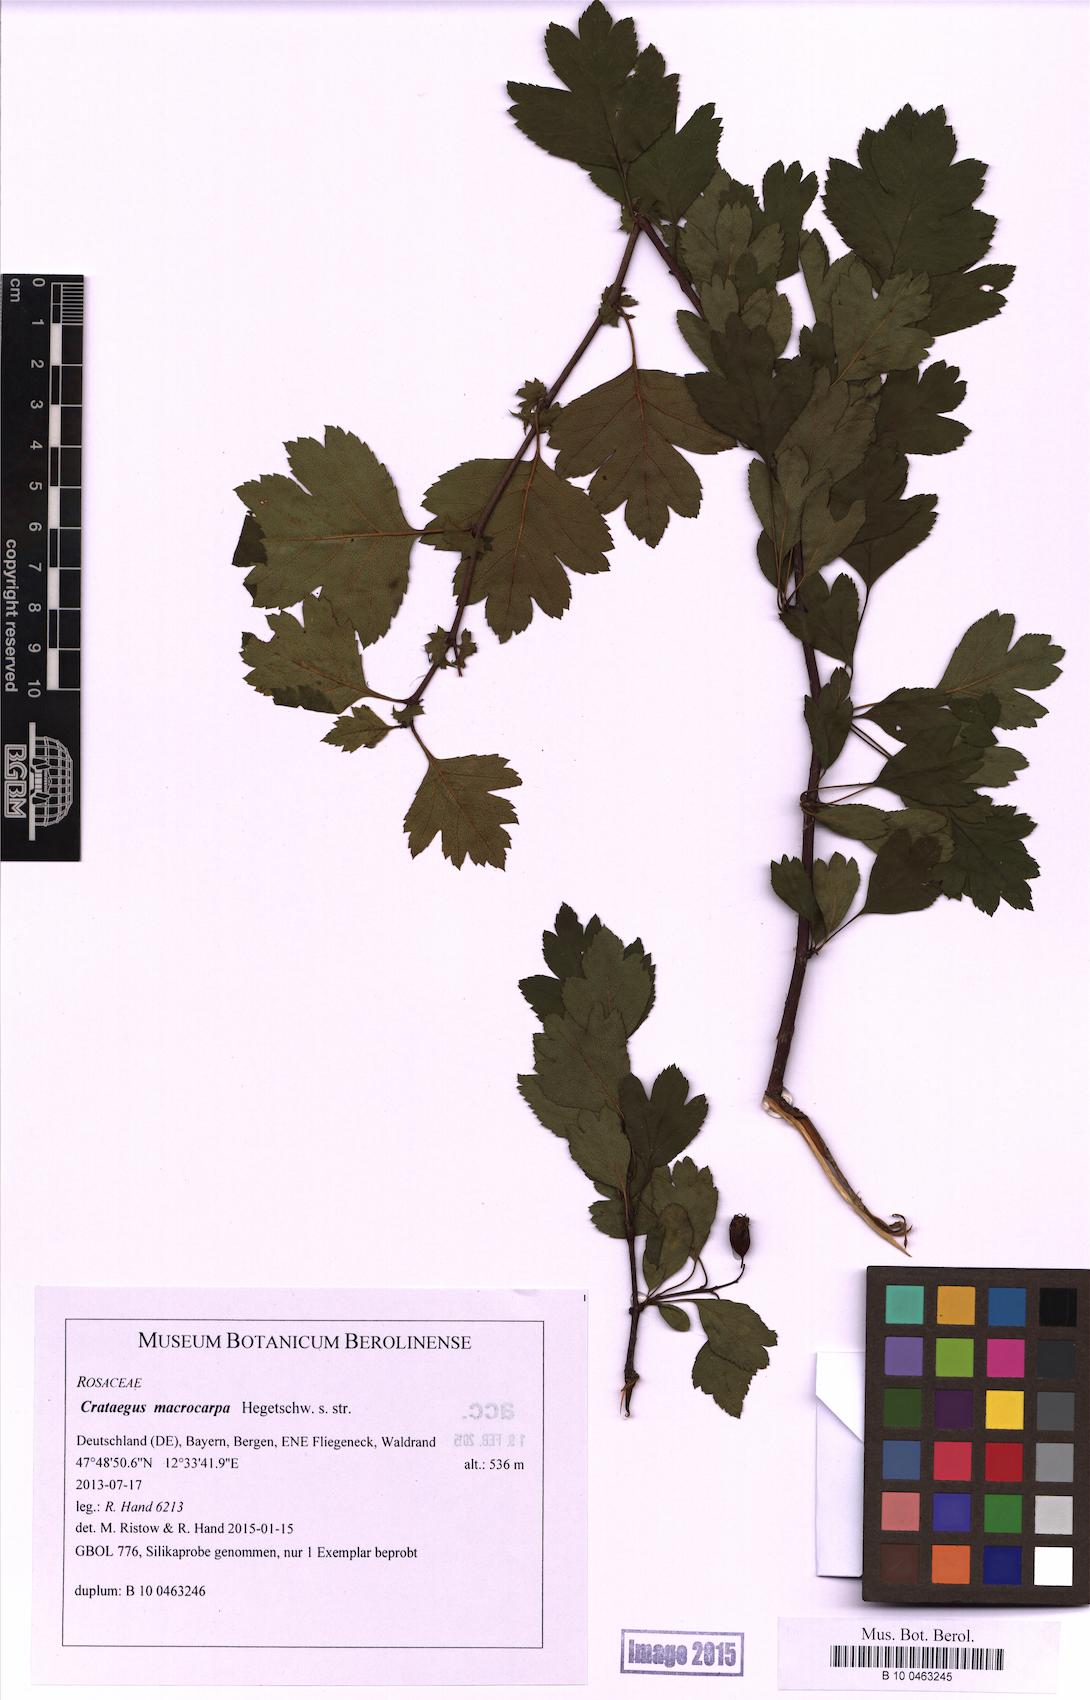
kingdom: Plantae
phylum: Tracheophyta
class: Magnoliopsida
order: Rosales
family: Rosaceae
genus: Crataegus
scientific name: Crataegus macrocarpa
